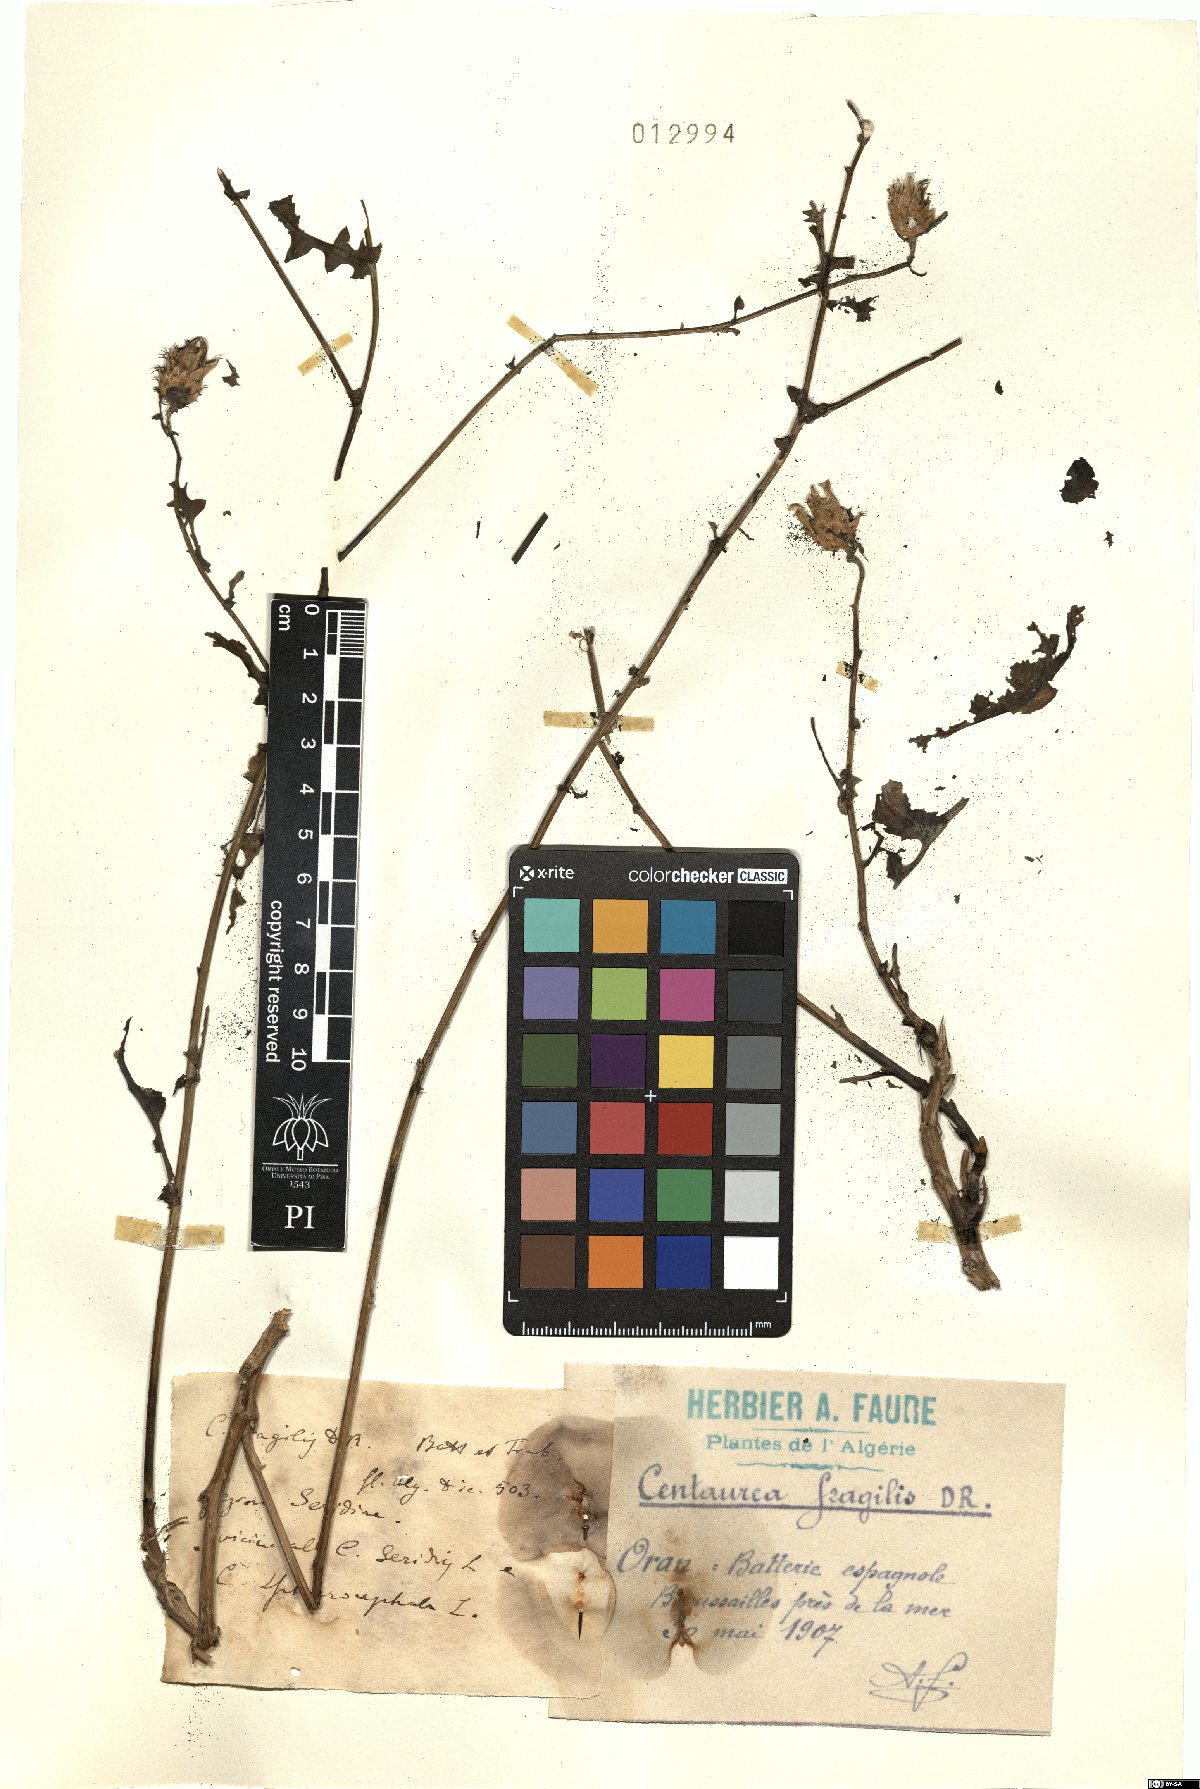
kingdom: Plantae
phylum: Tracheophyta
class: Magnoliopsida
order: Asterales
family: Asteraceae
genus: Centaurea
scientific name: Centaurea fragilis
